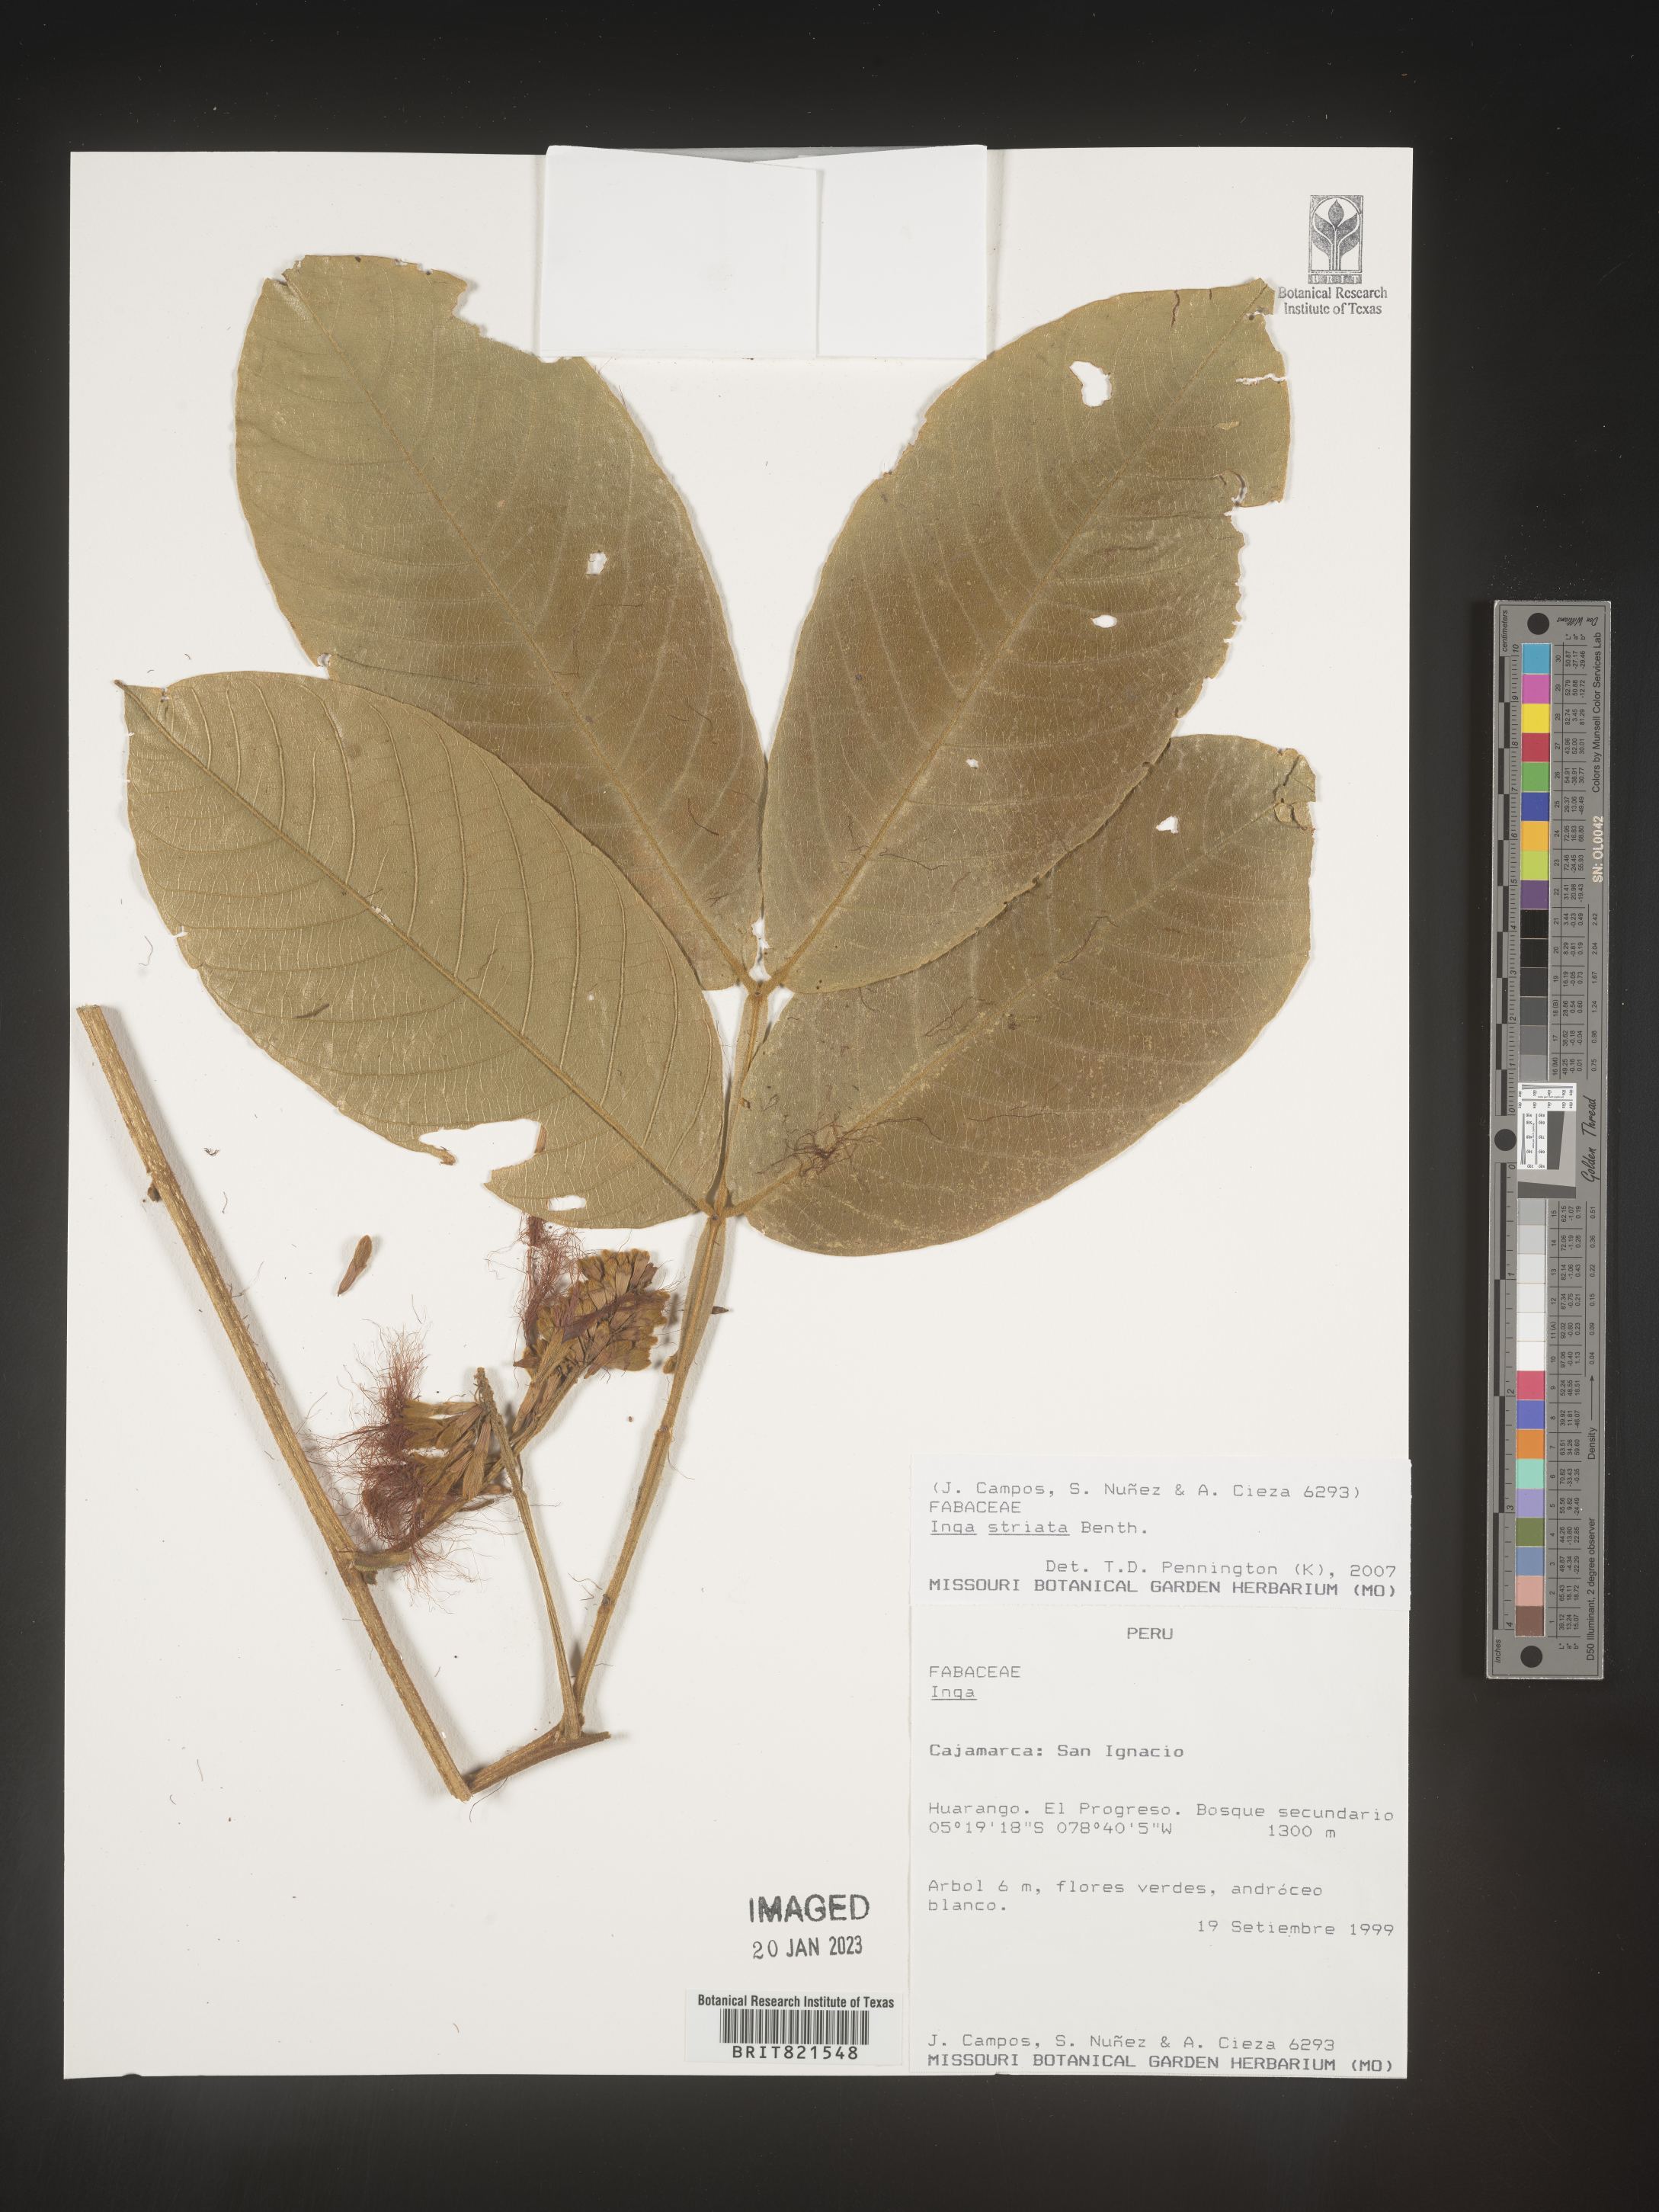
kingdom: Plantae
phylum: Tracheophyta
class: Magnoliopsida
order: Fabales
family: Fabaceae
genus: Inga
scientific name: Inga
